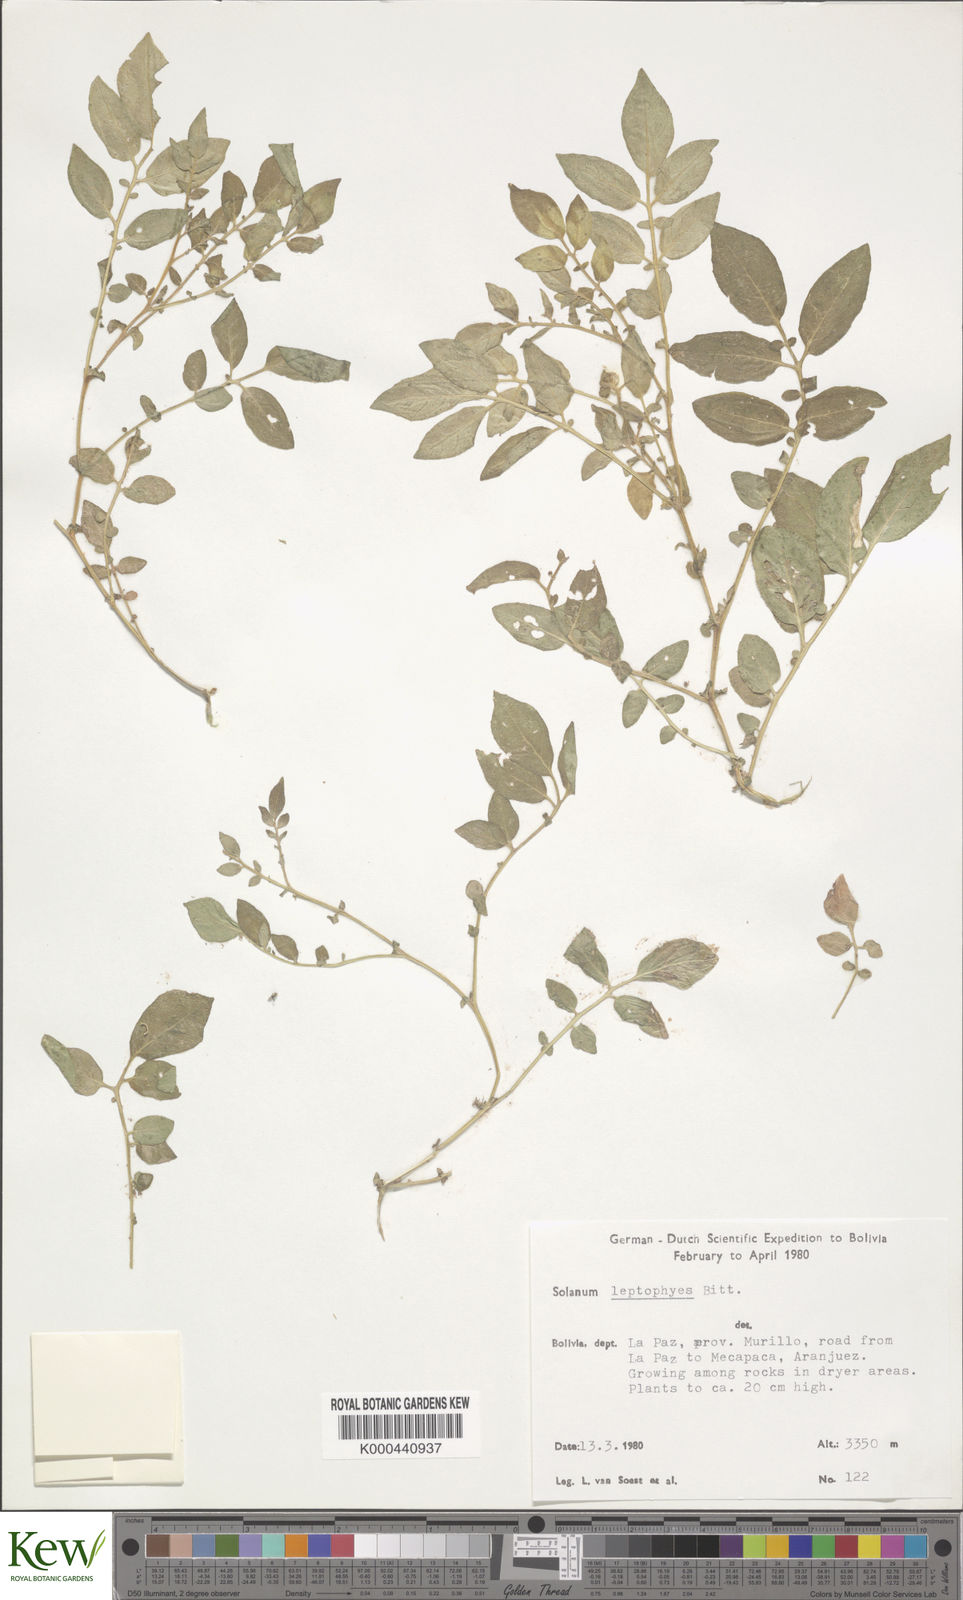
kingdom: Plantae
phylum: Tracheophyta
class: Magnoliopsida
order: Solanales
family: Solanaceae
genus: Solanum
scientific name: Solanum brevicaule
